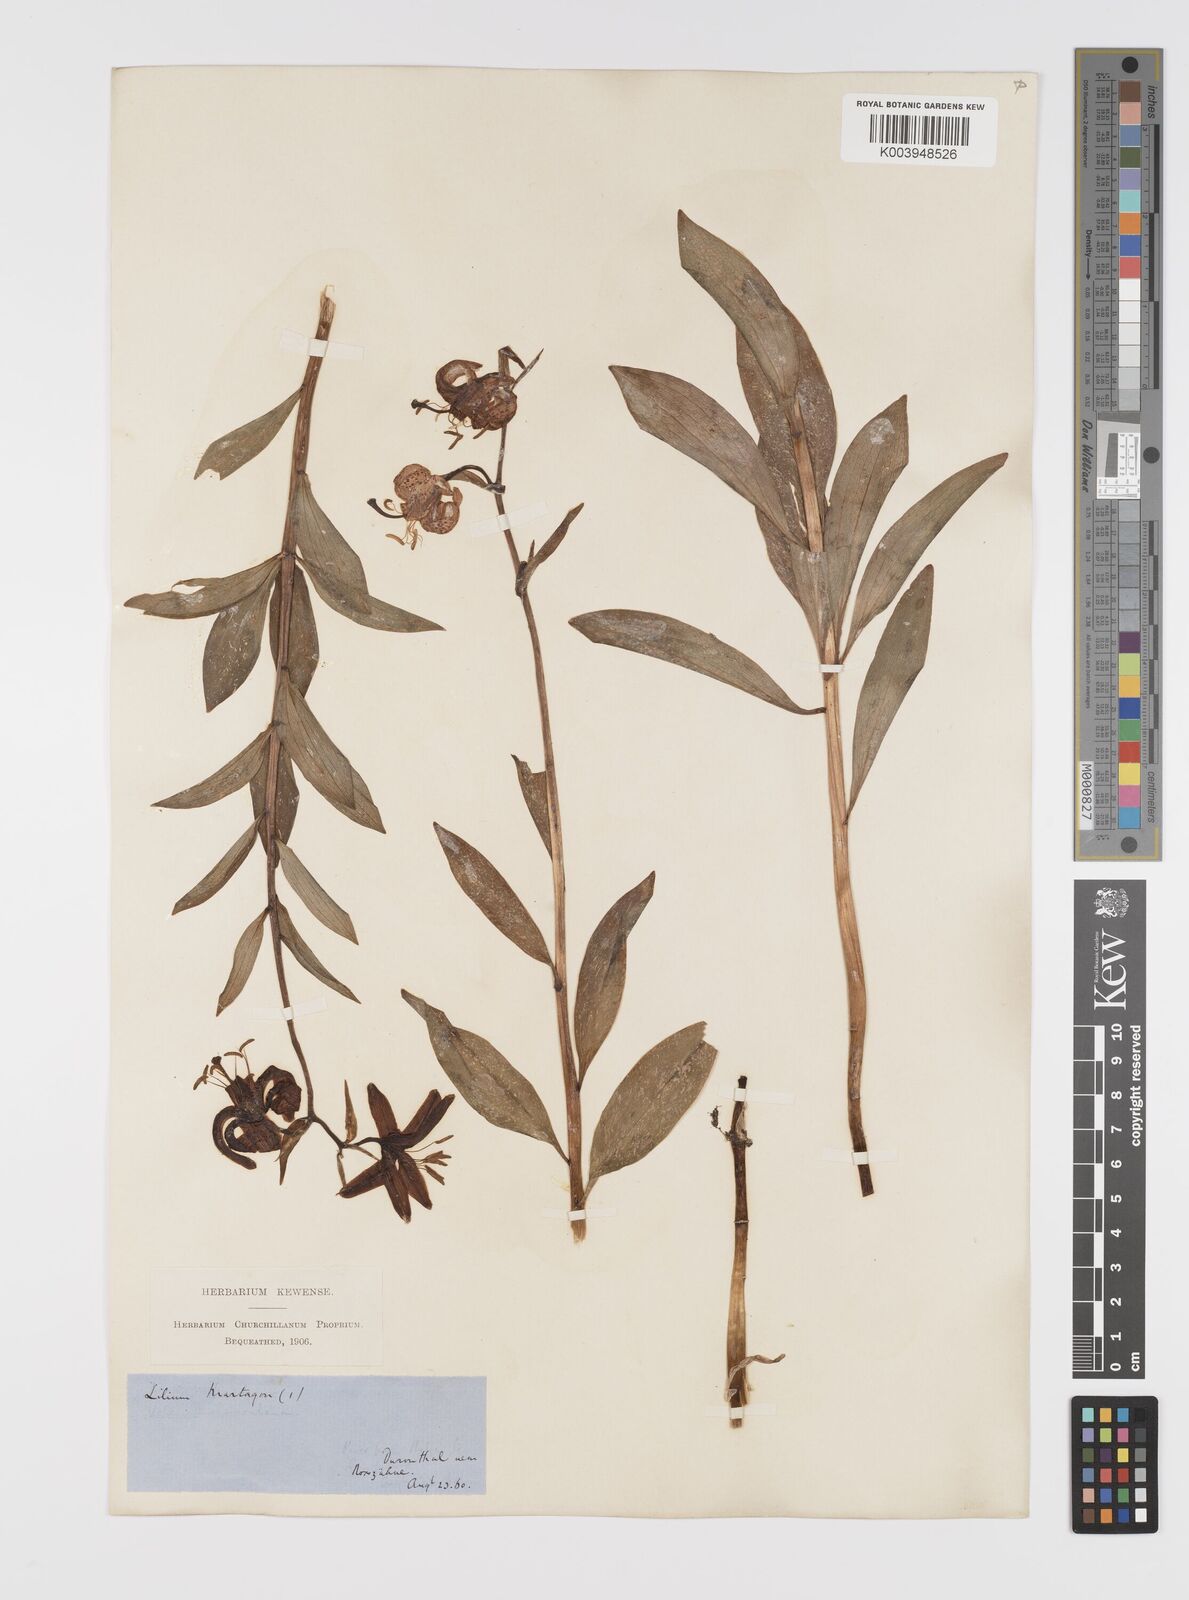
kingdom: Plantae
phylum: Tracheophyta
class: Liliopsida
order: Liliales
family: Liliaceae
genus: Lilium
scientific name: Lilium martagon
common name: Martagon lily
